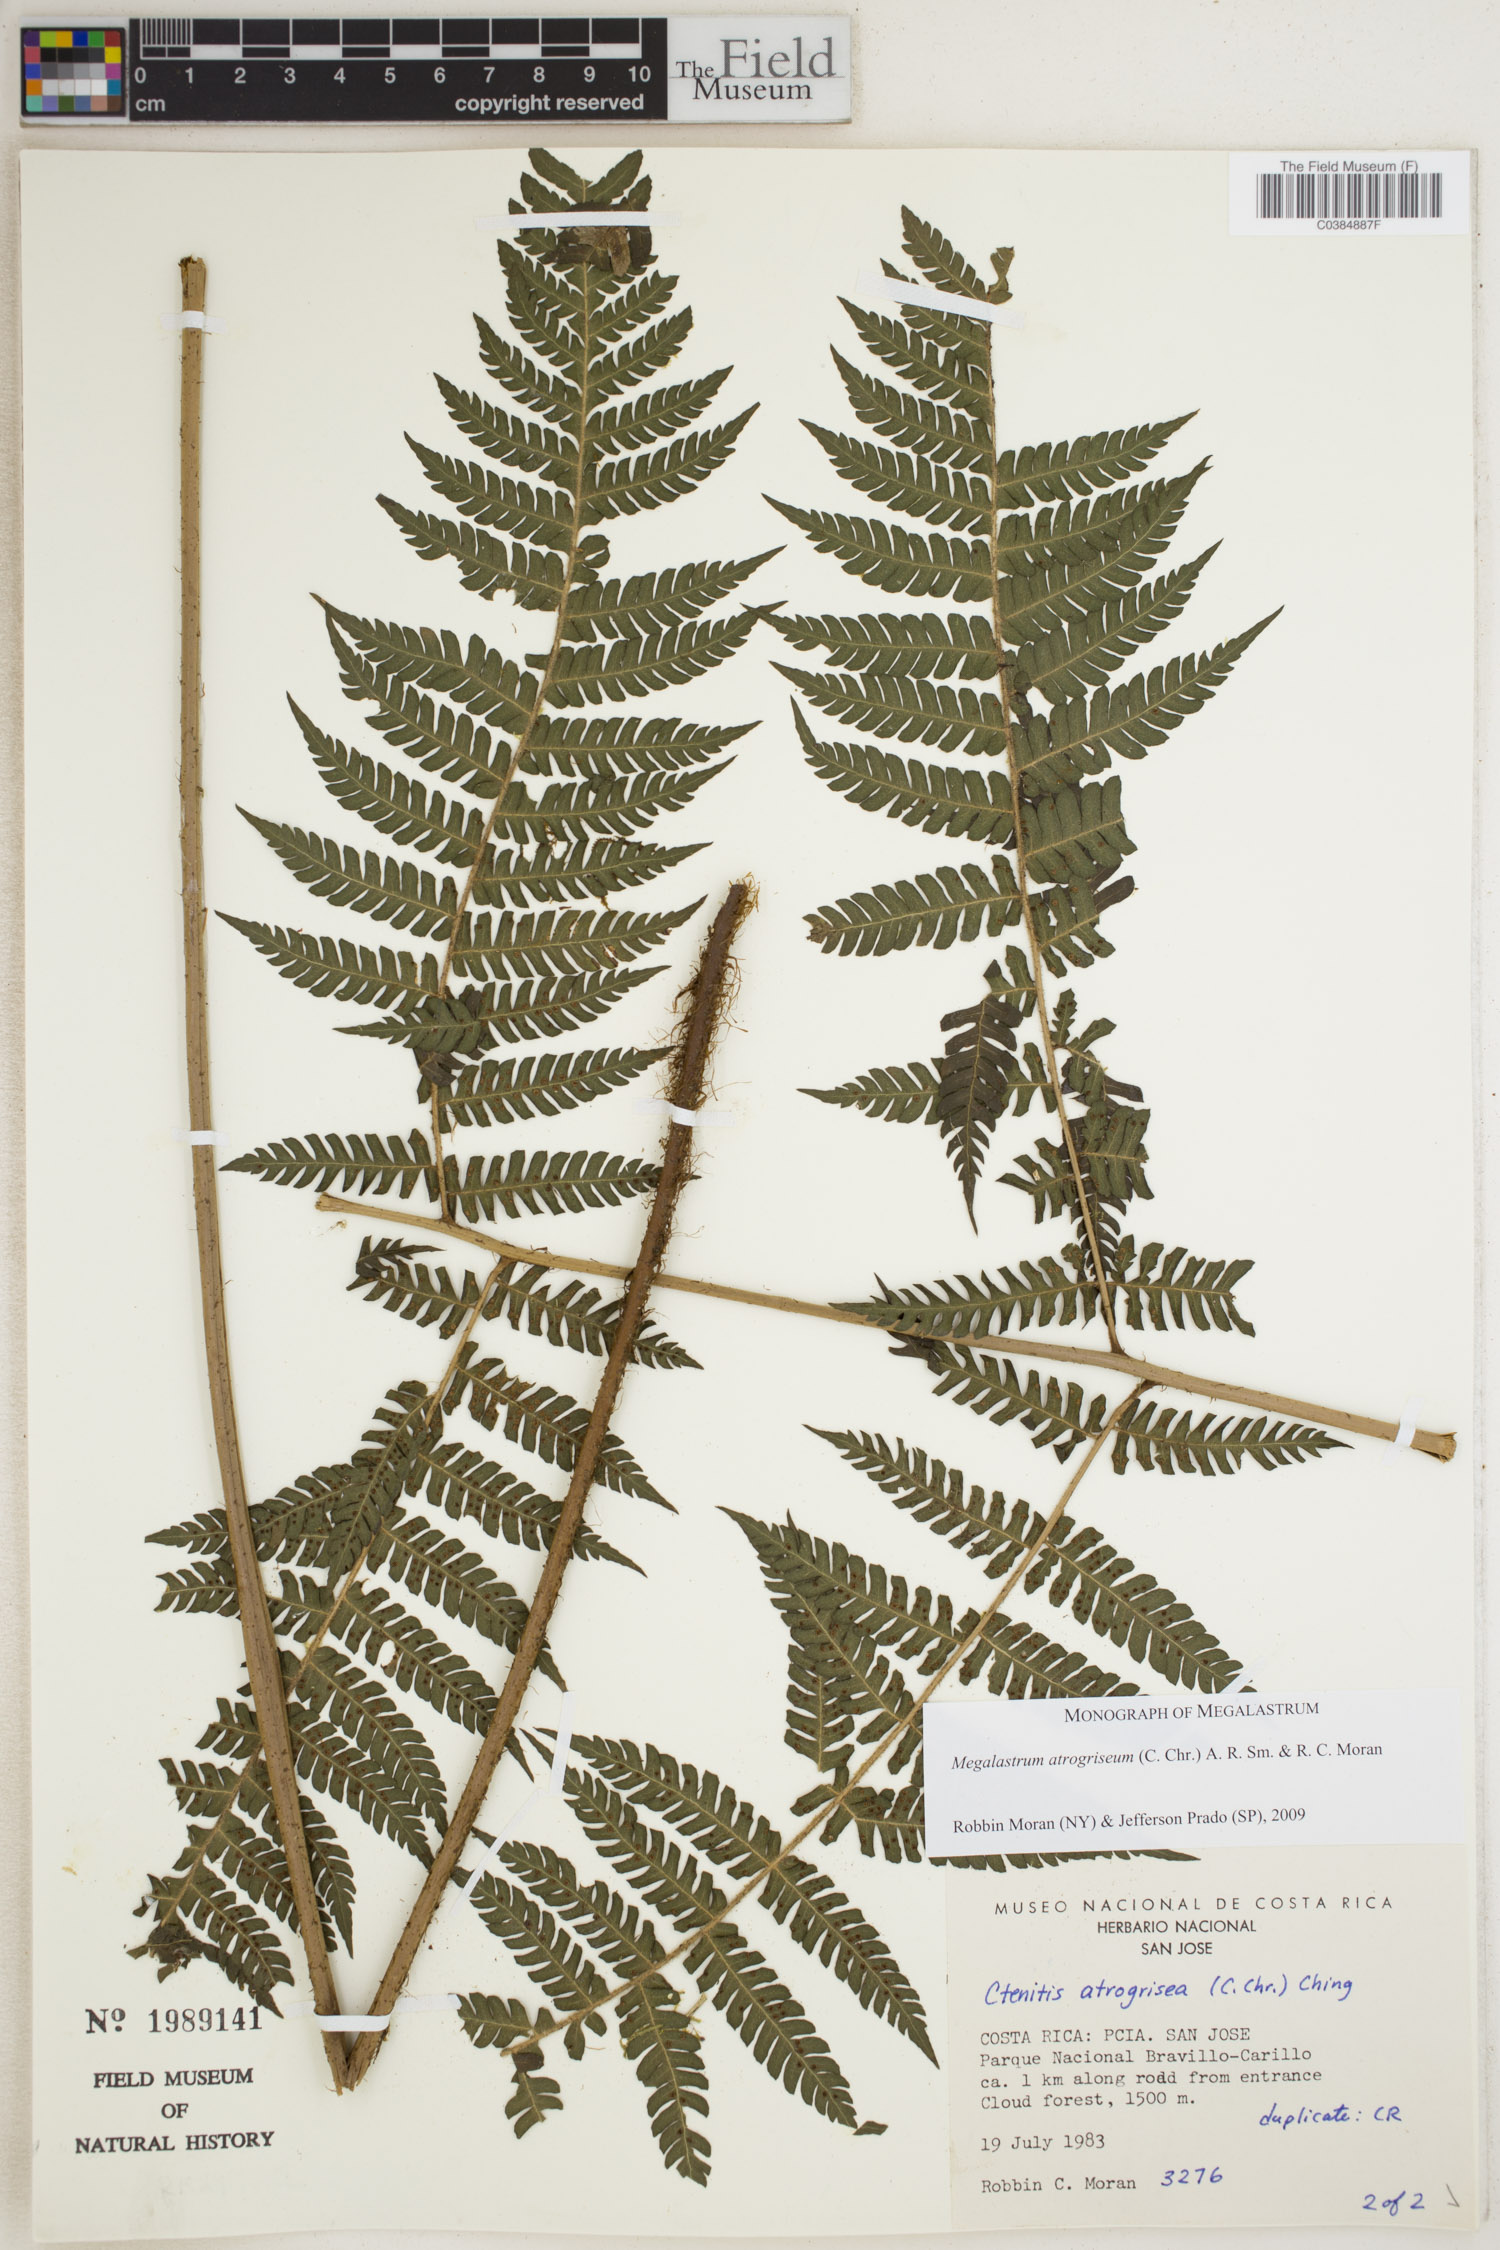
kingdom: Plantae
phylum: Tracheophyta
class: Polypodiopsida
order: Polypodiales
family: Dryopteridaceae
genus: Megalastrum
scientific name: Megalastrum atrogriseum
